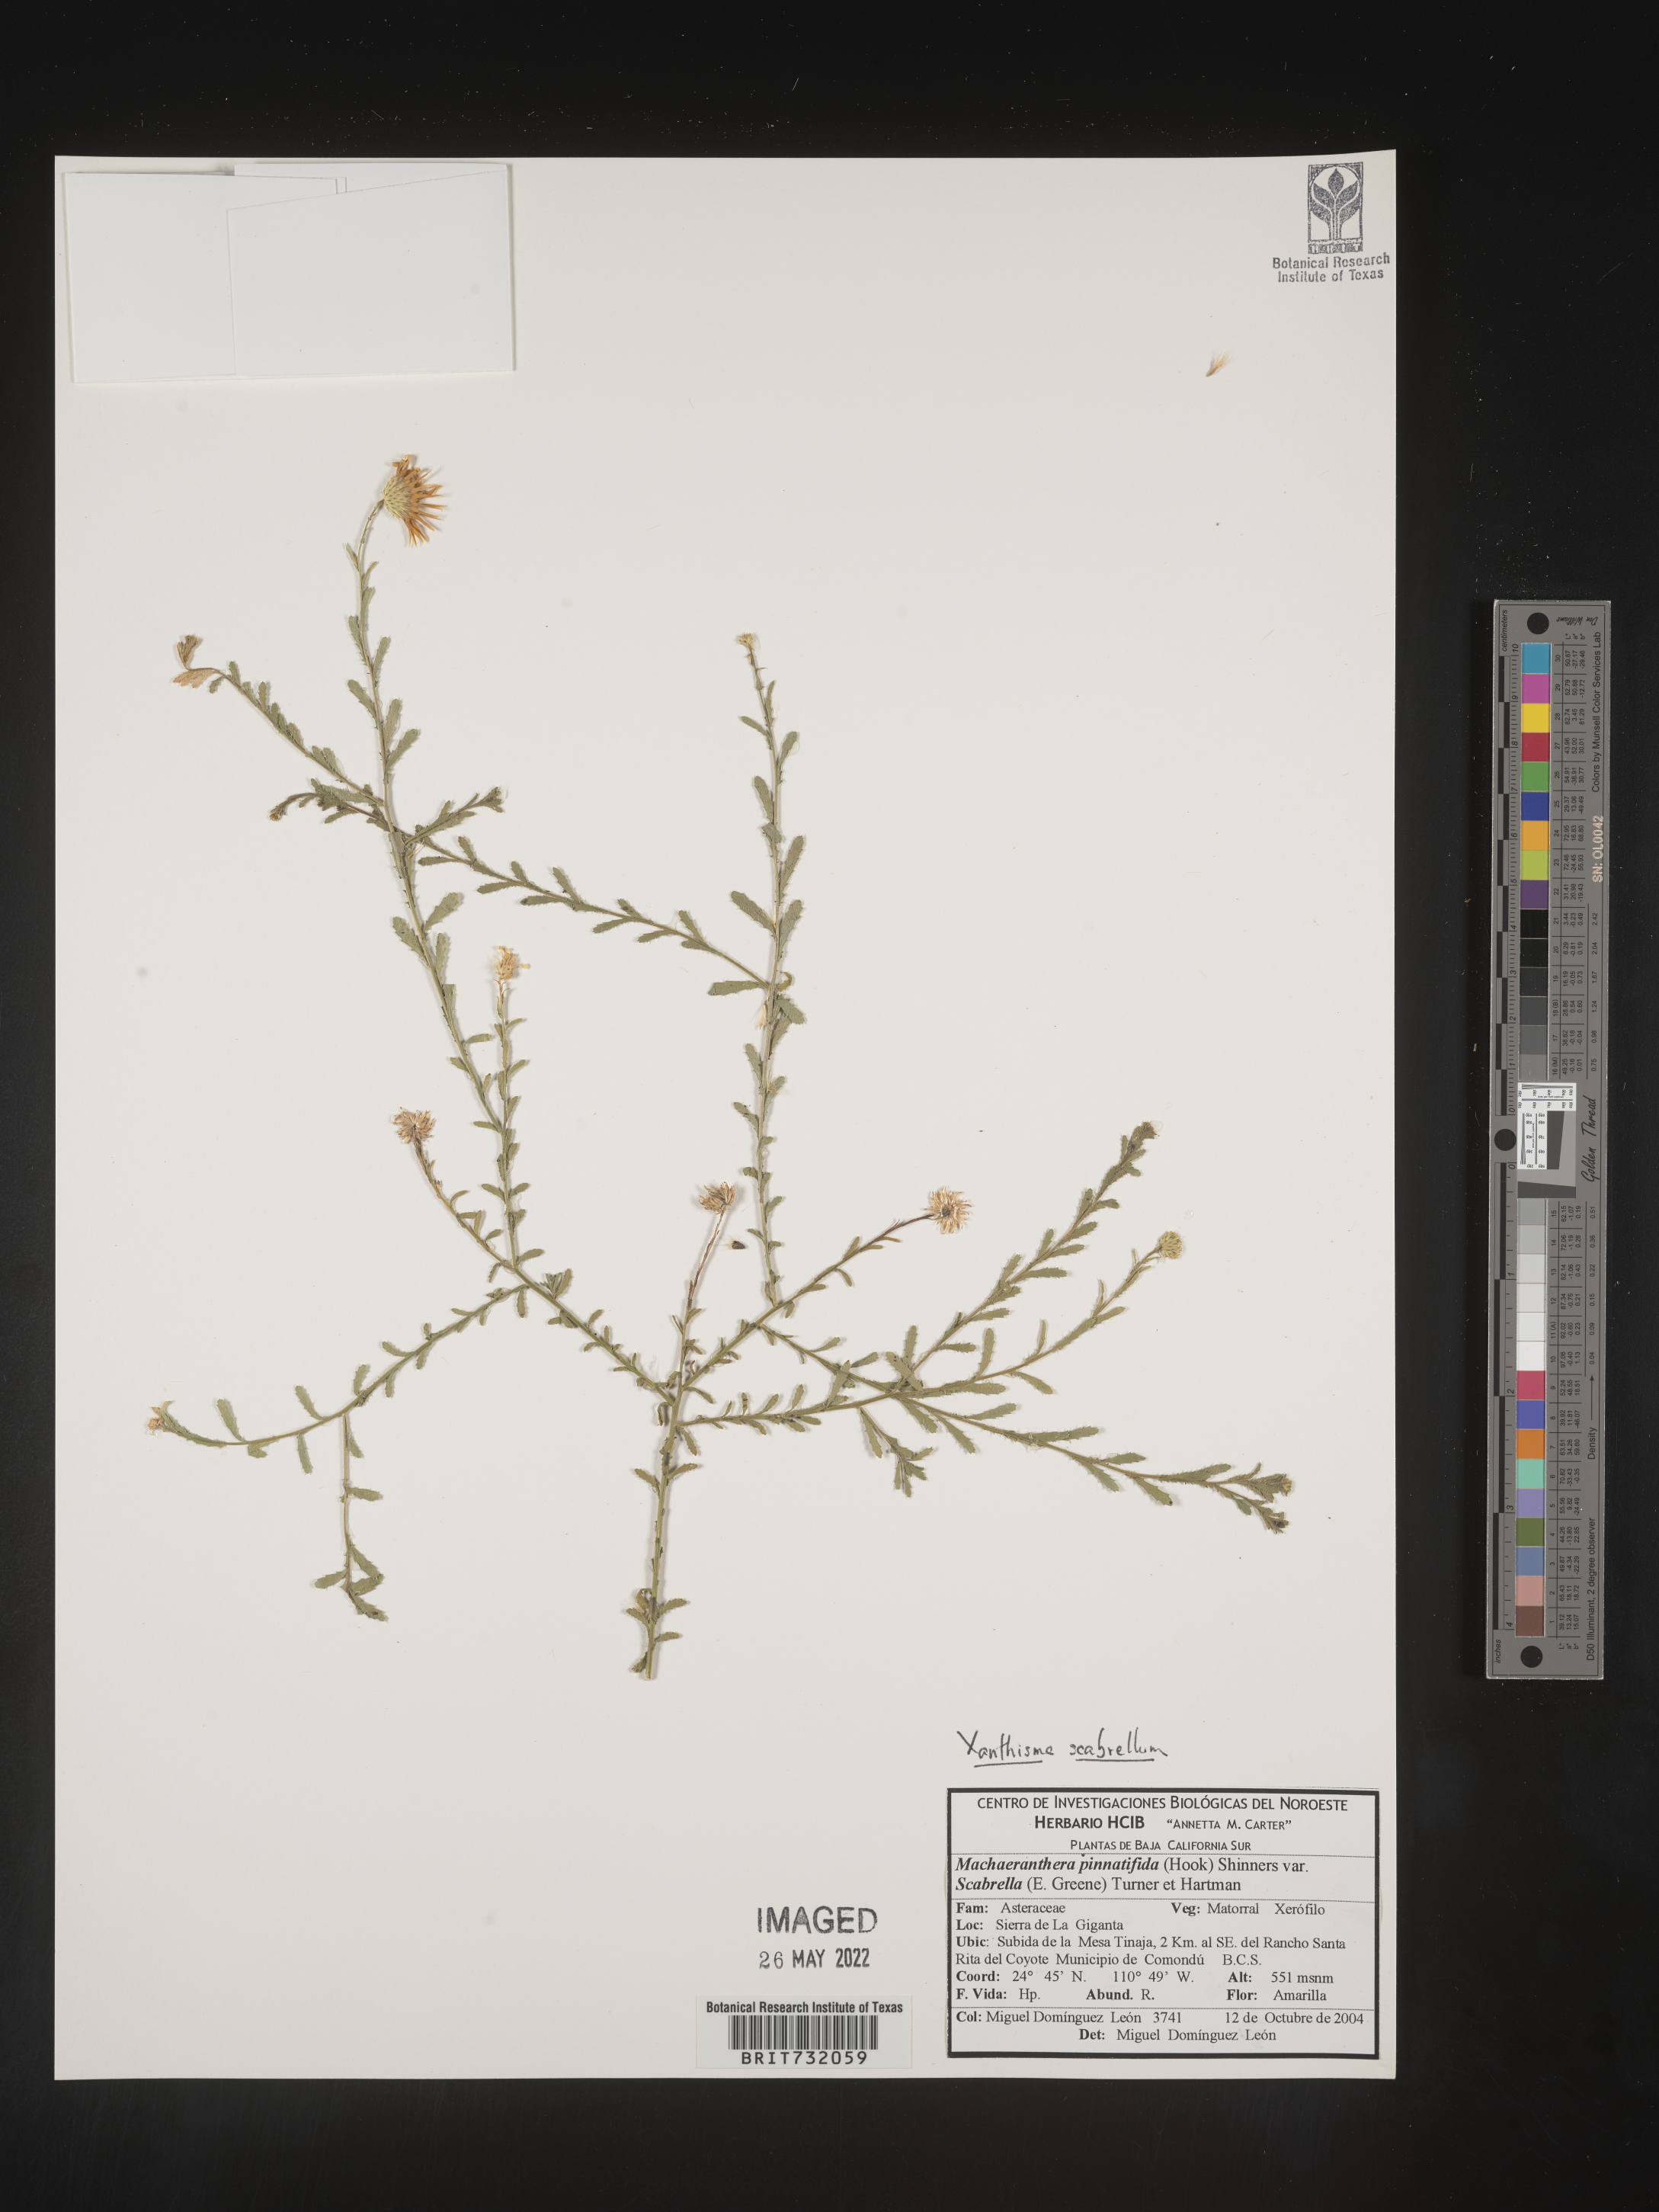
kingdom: Plantae
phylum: Tracheophyta
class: Magnoliopsida
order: Asterales
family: Asteraceae
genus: Xanthisma
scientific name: Xanthisma scabrellum
